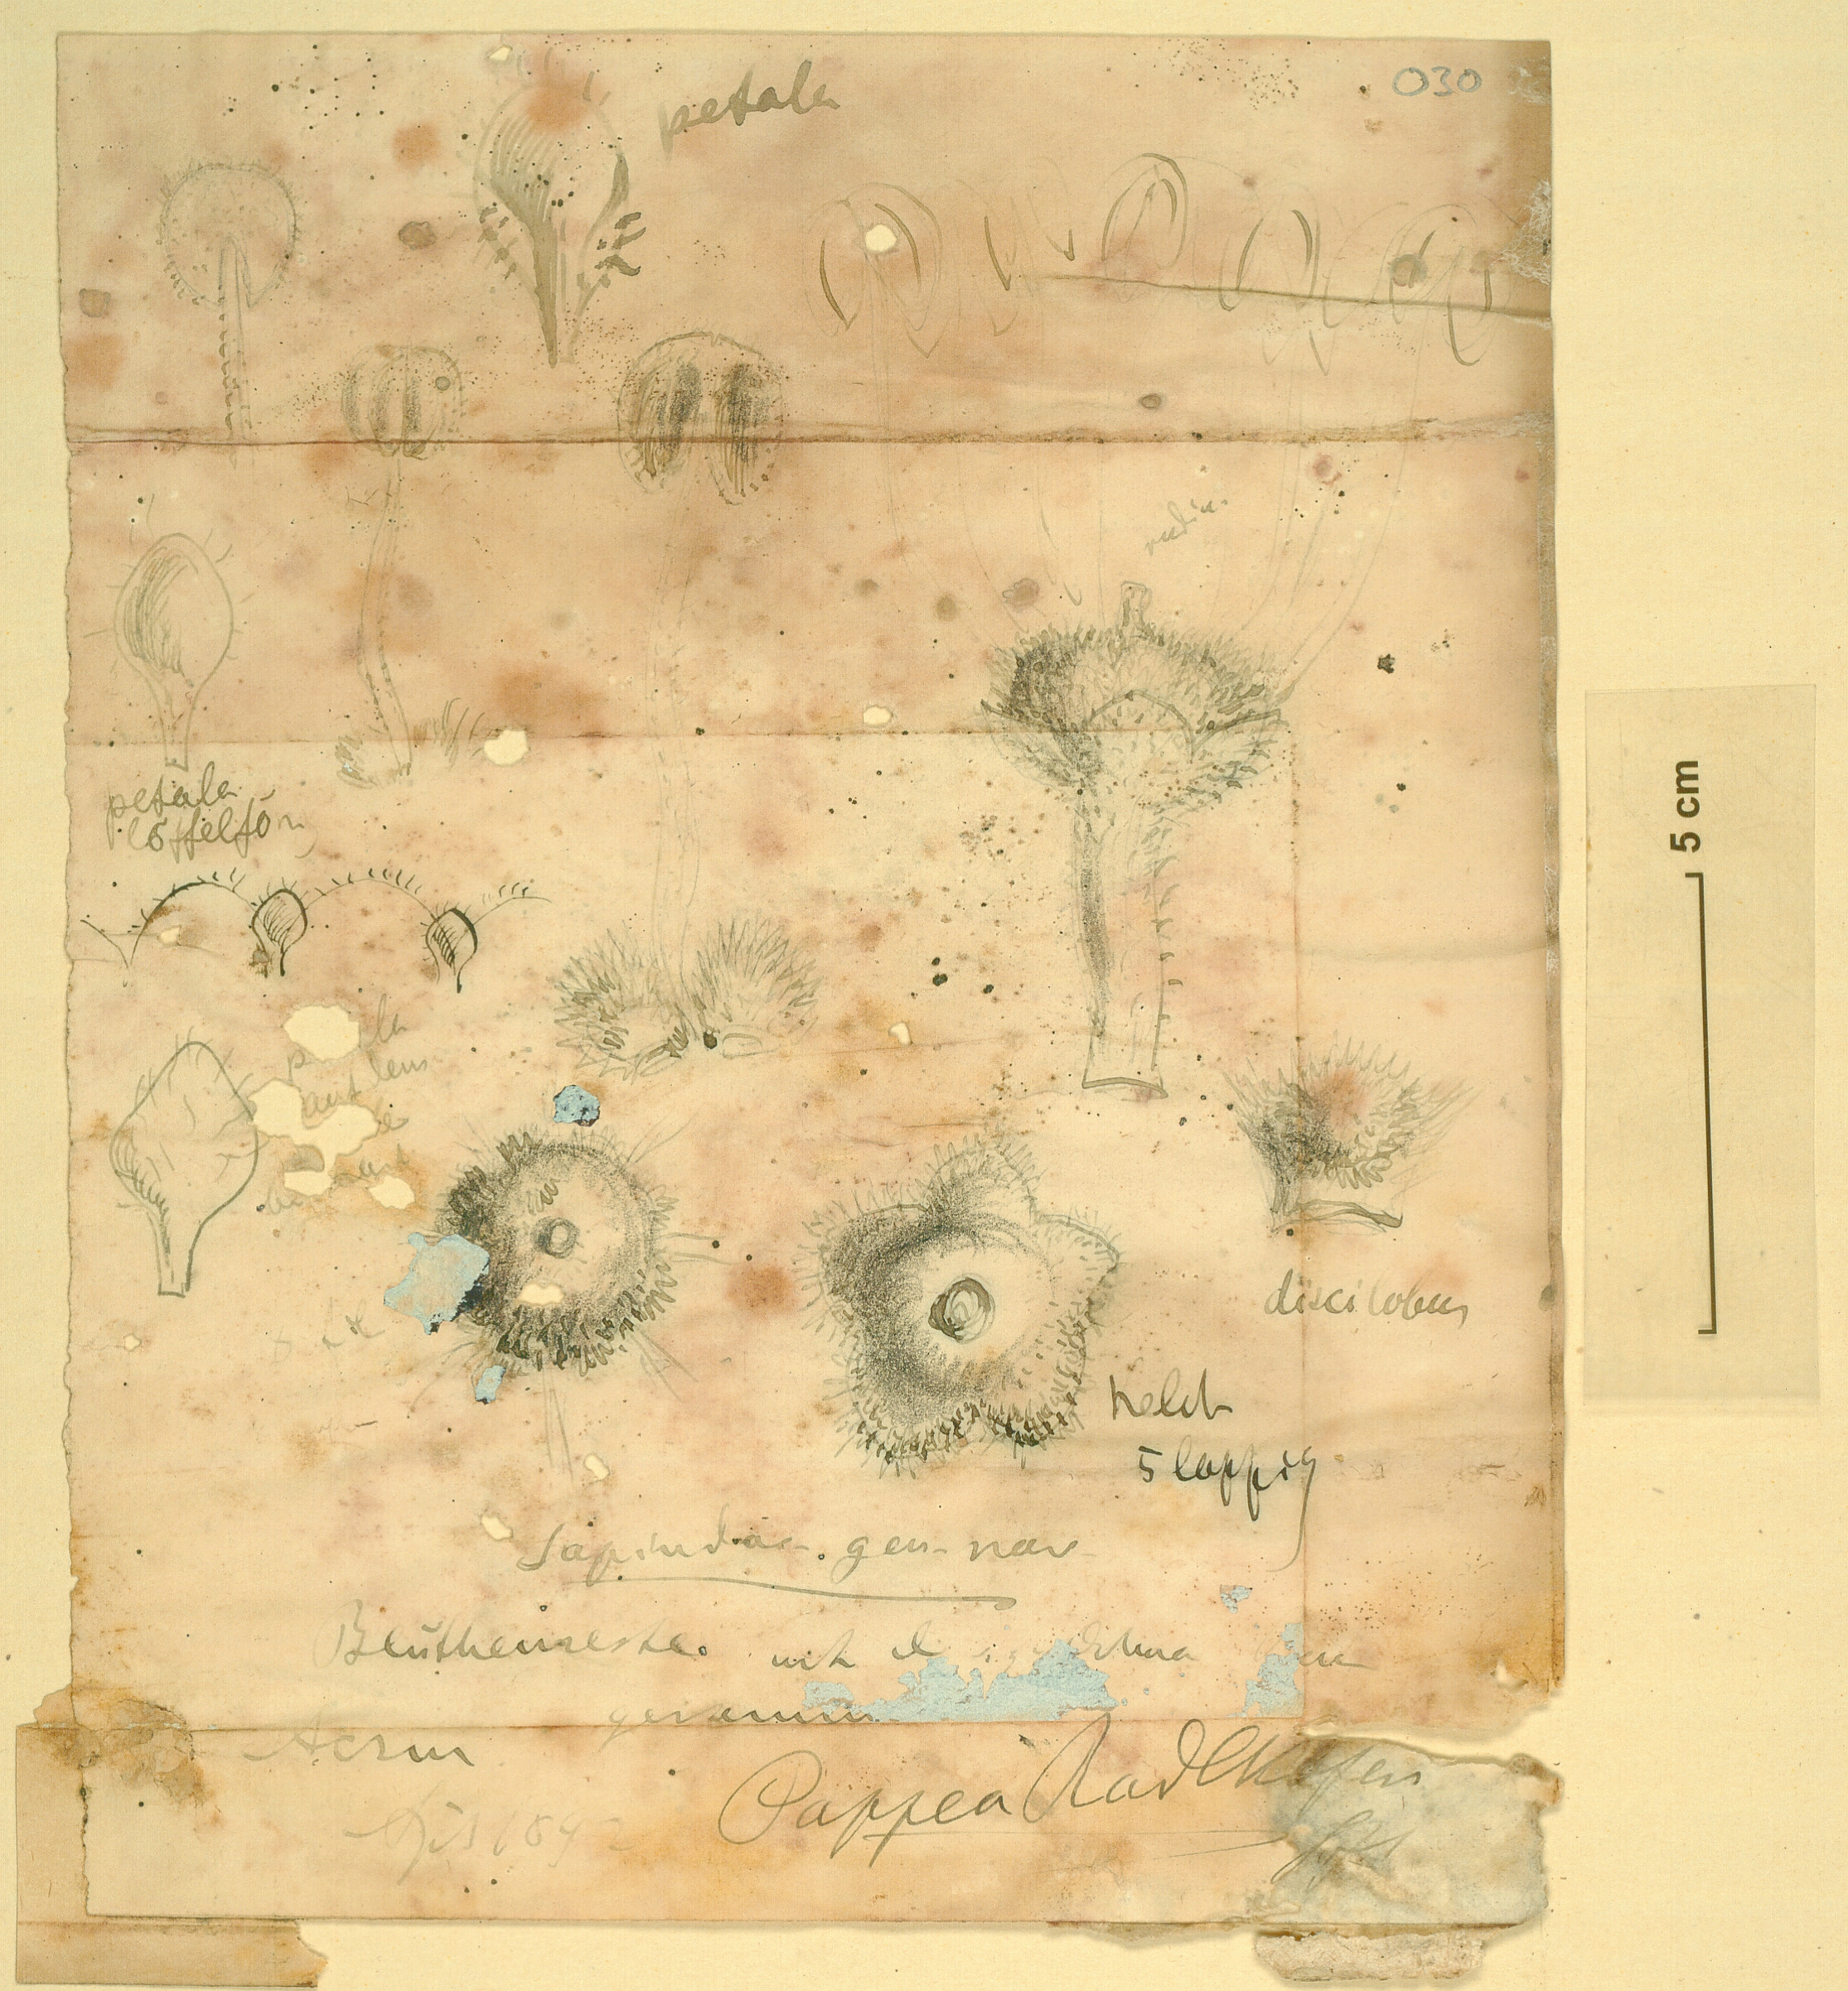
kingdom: Plantae
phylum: Tracheophyta
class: Magnoliopsida
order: Sapindales
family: Sapindaceae
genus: Pappea
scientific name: Pappea capensis
